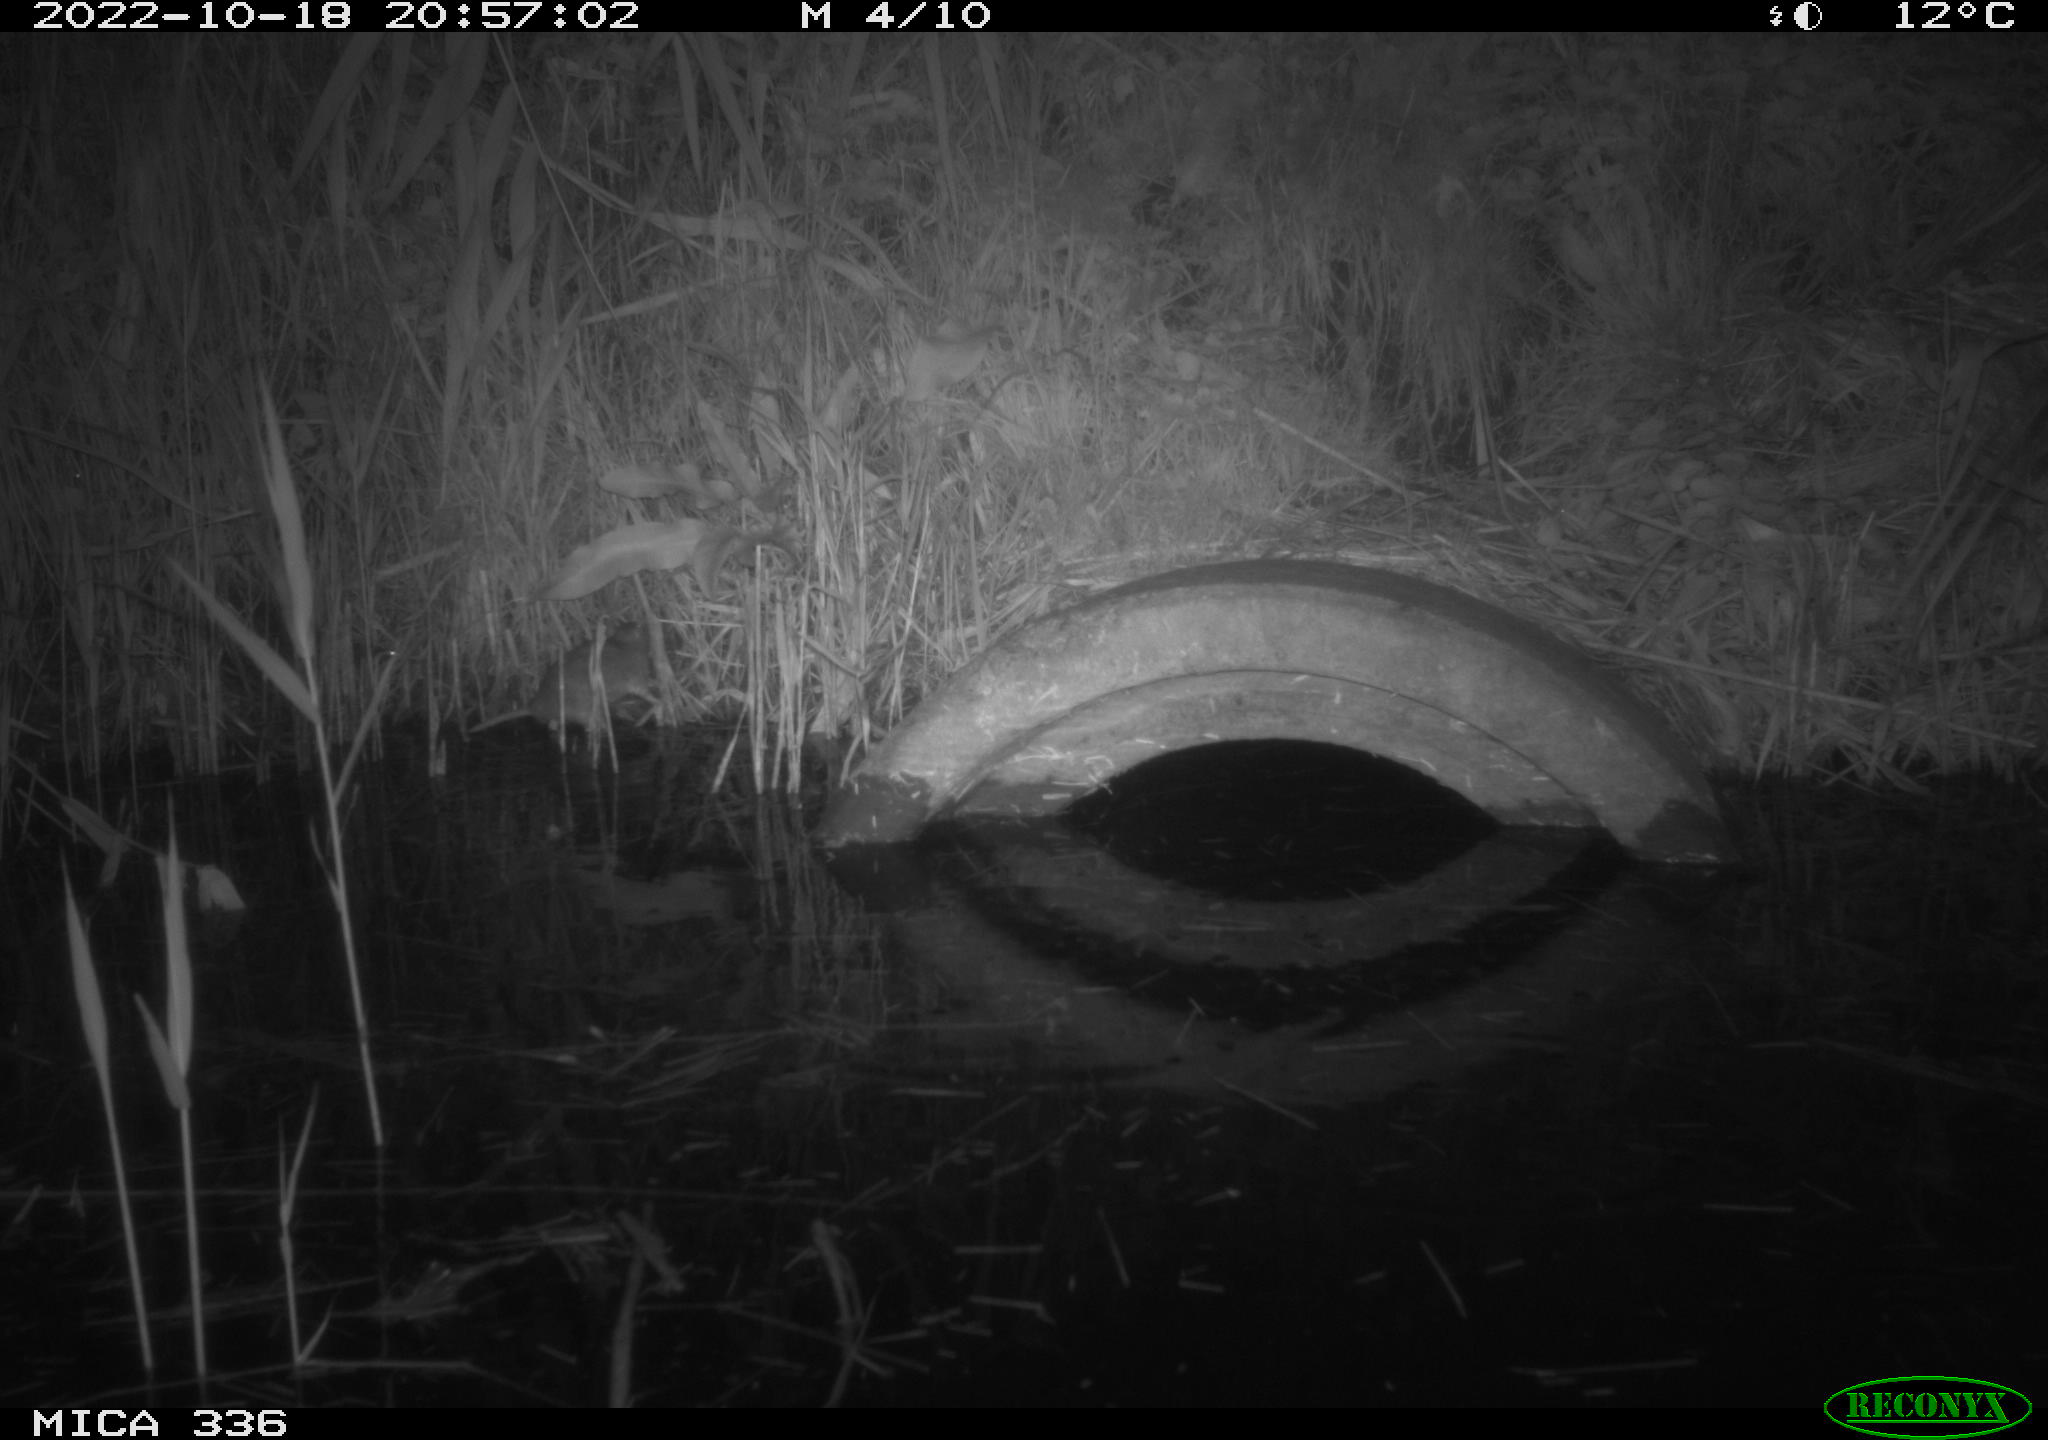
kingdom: Animalia
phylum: Chordata
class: Mammalia
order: Rodentia
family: Muridae
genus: Rattus
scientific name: Rattus norvegicus
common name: Brown rat
